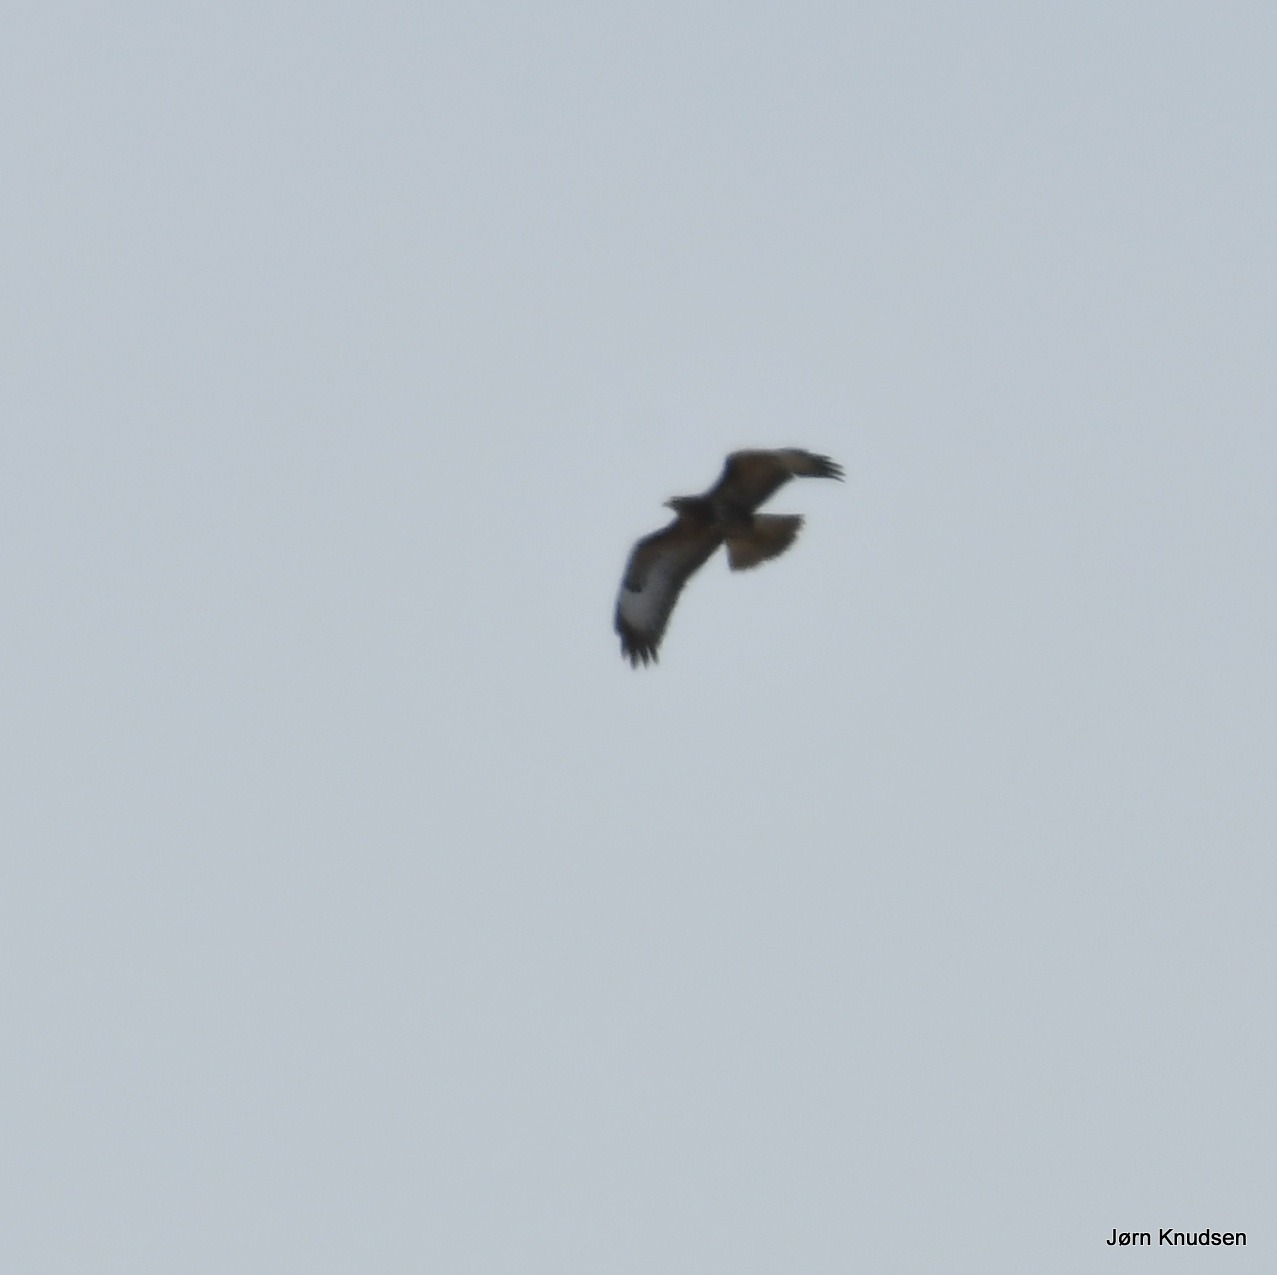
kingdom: Animalia
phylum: Chordata
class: Aves
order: Accipitriformes
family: Accipitridae
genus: Buteo
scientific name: Buteo buteo
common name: Musvåge
